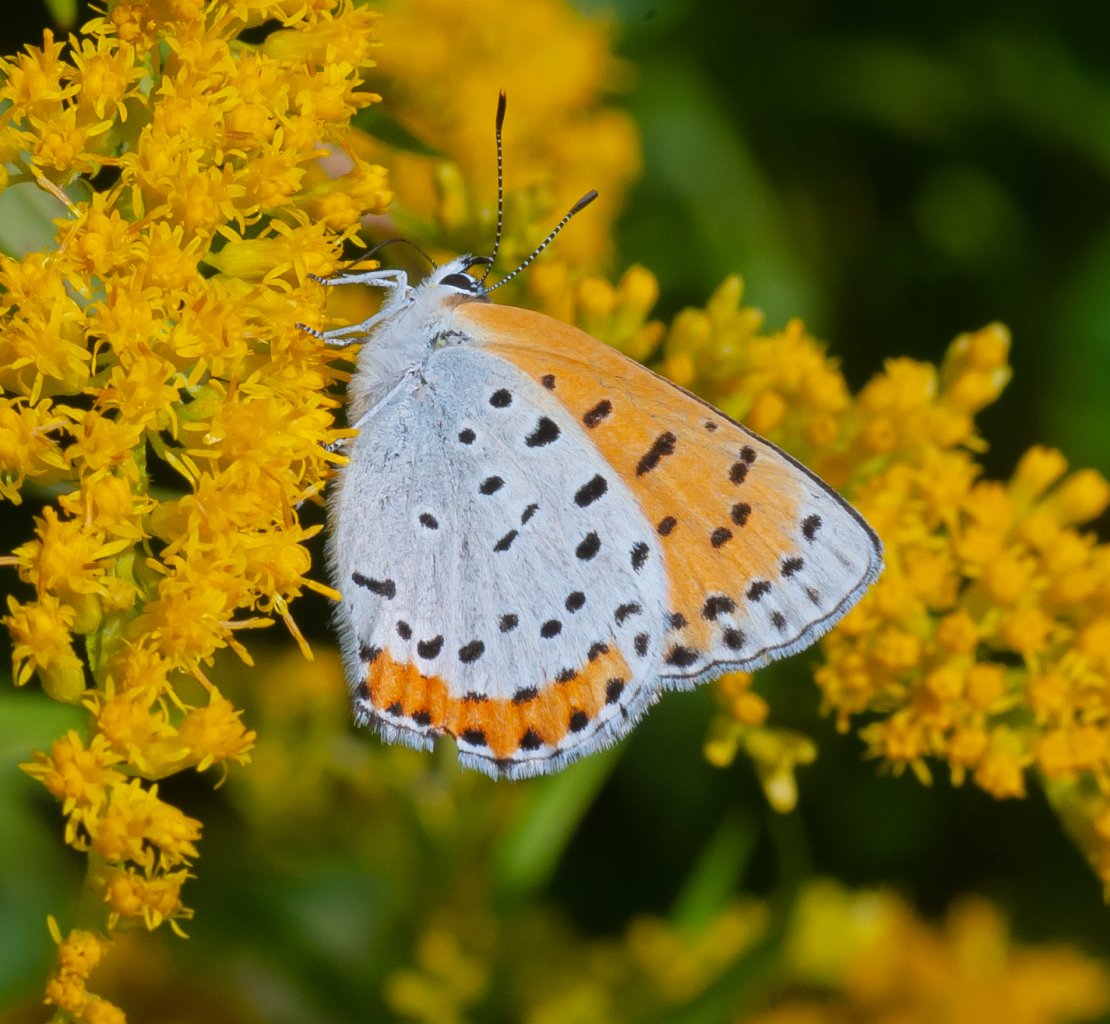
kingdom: Animalia
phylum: Arthropoda
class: Insecta
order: Lepidoptera
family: Sesiidae
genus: Sesia
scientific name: Sesia Lycaena hyllus
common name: Bronze Copper
